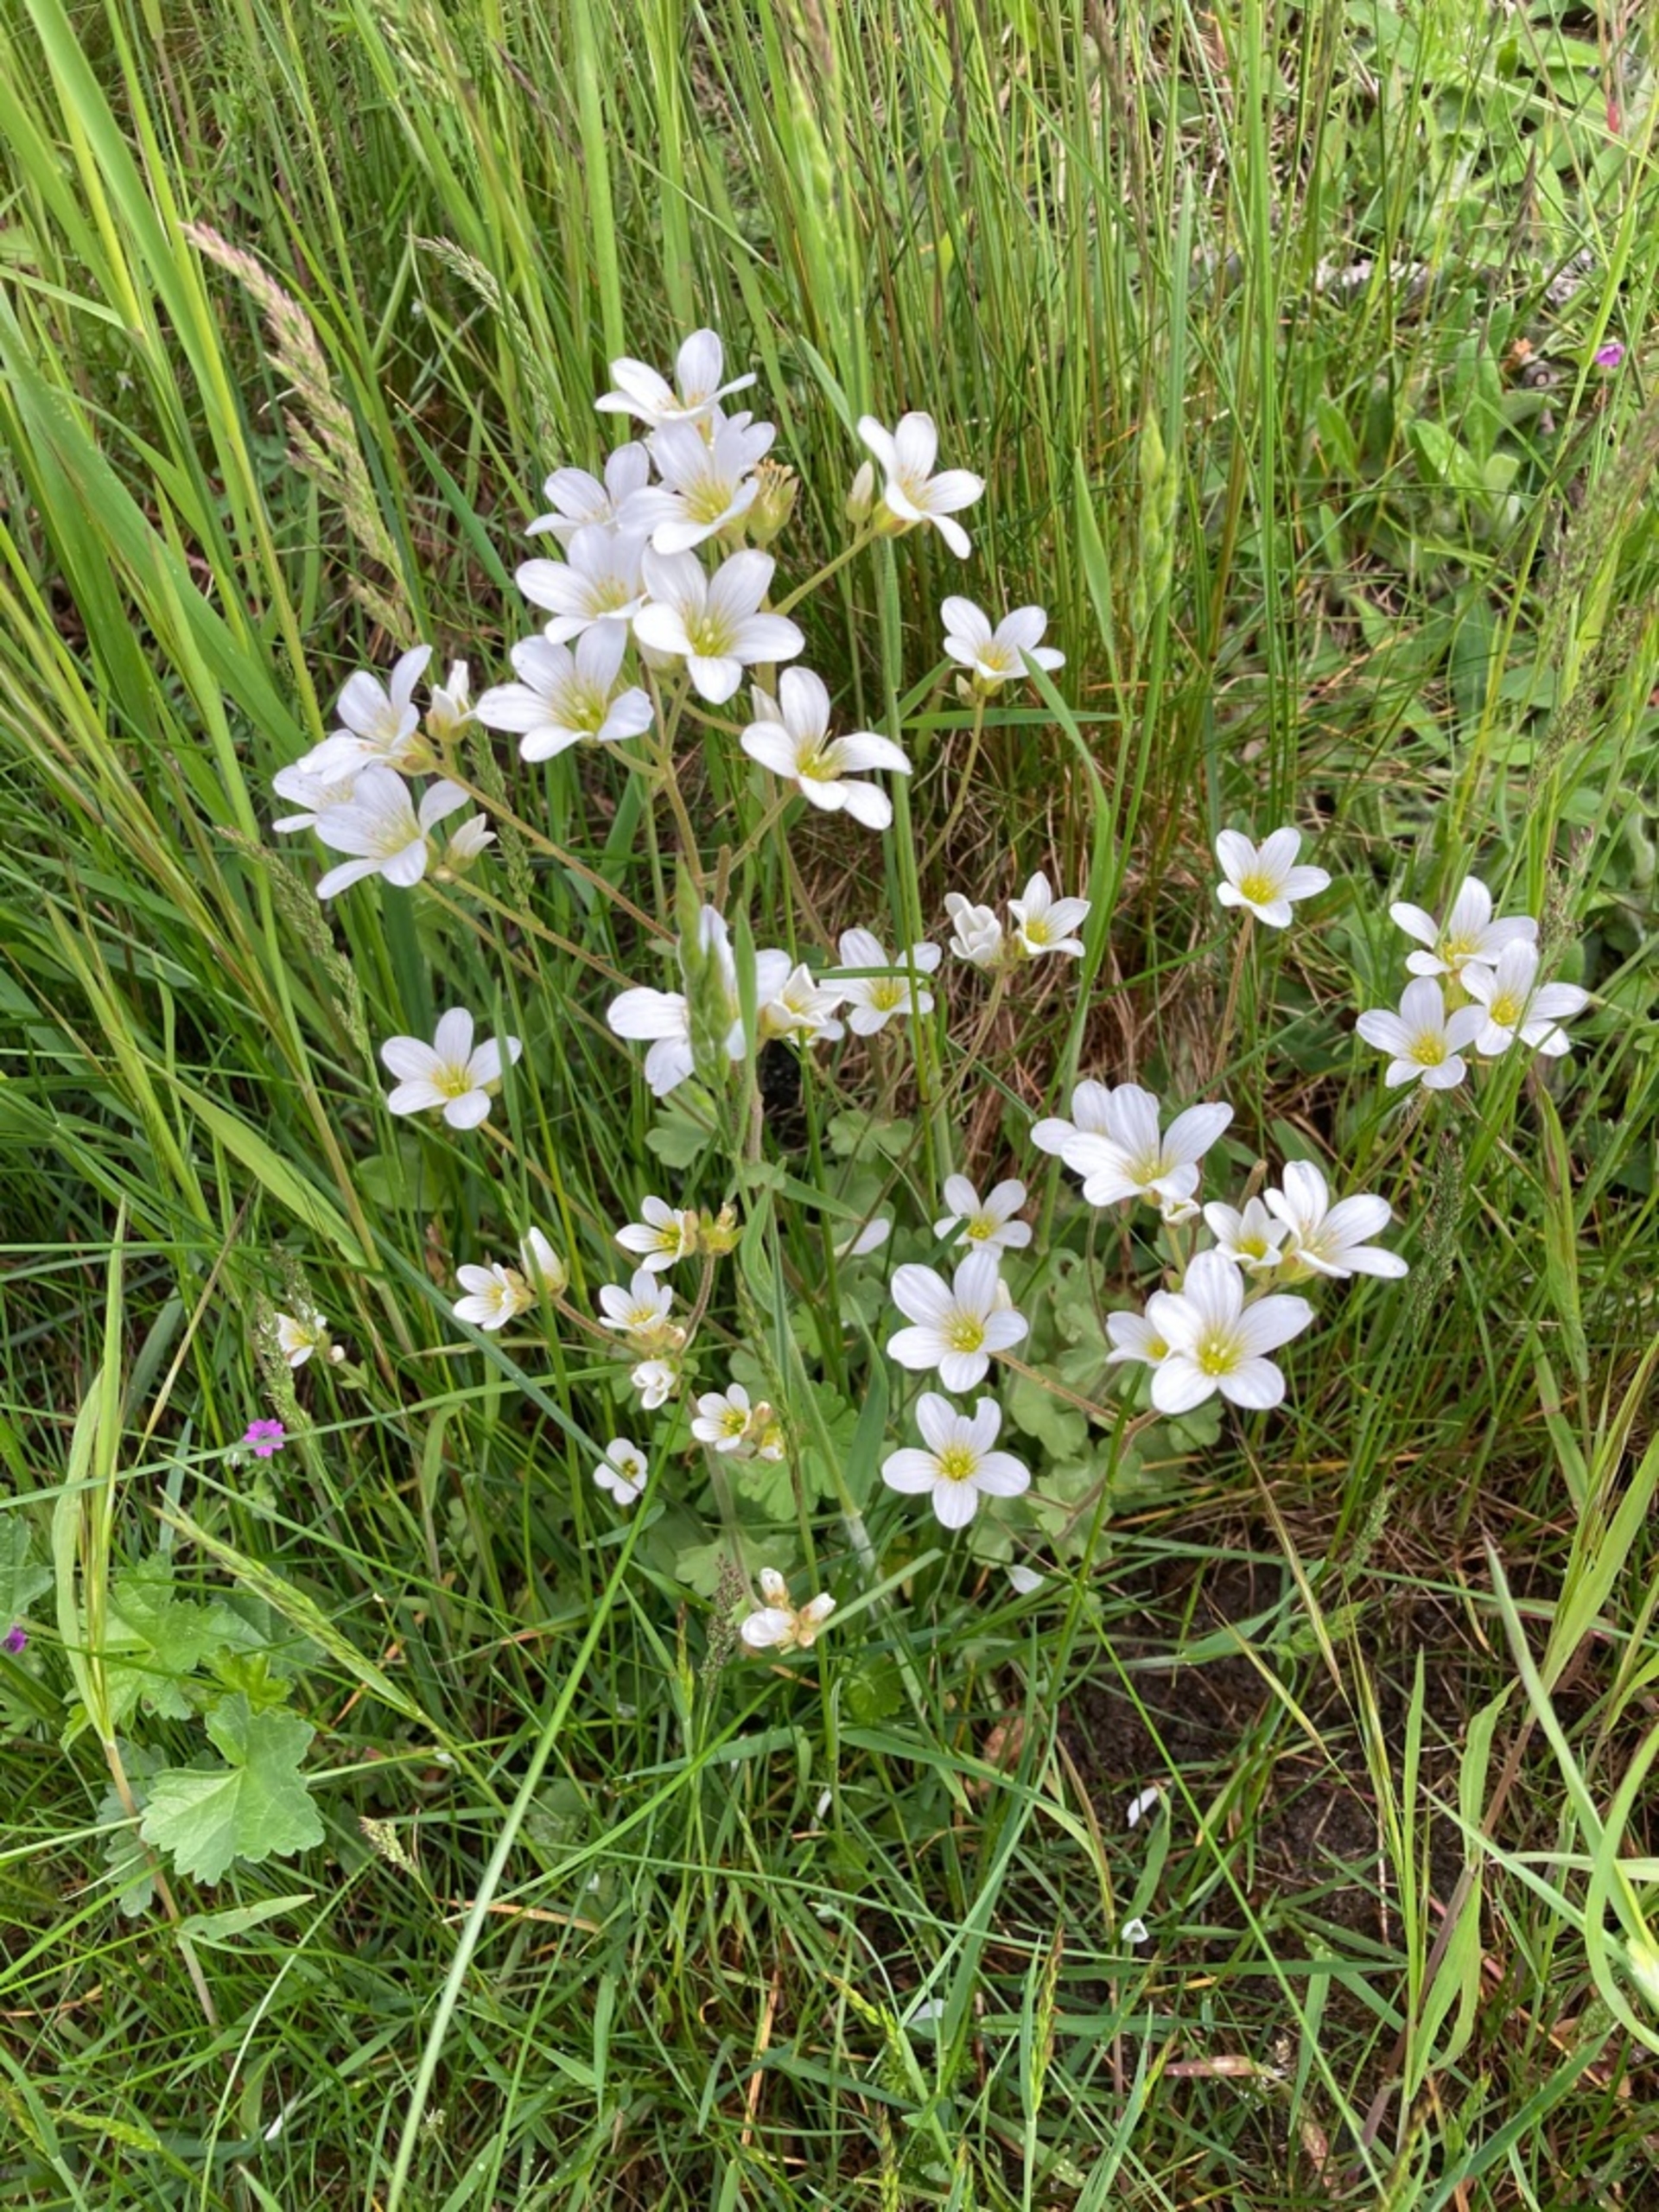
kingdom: Plantae
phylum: Tracheophyta
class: Magnoliopsida
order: Saxifragales
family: Saxifragaceae
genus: Saxifraga
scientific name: Saxifraga granulata
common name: Kornet stenbræk
